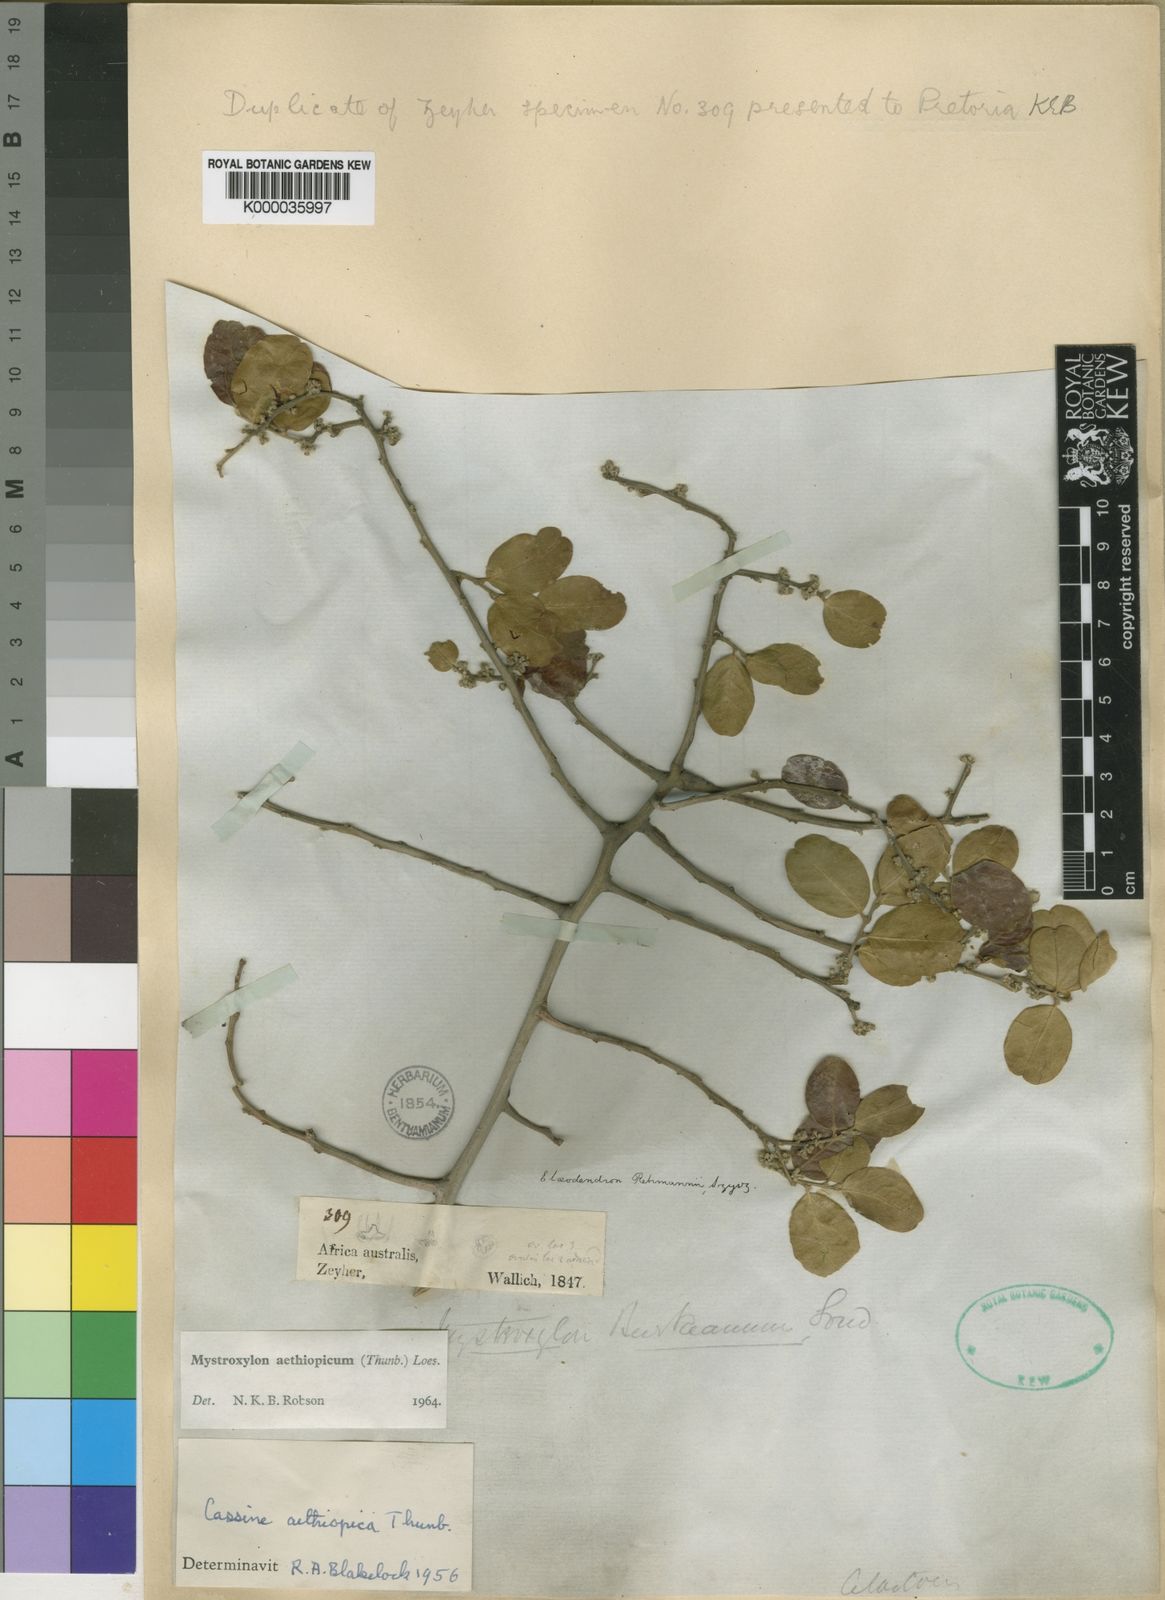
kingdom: Plantae
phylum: Tracheophyta
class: Magnoliopsida
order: Celastrales
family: Celastraceae
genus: Mystroxylon
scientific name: Mystroxylon aethiopicum
